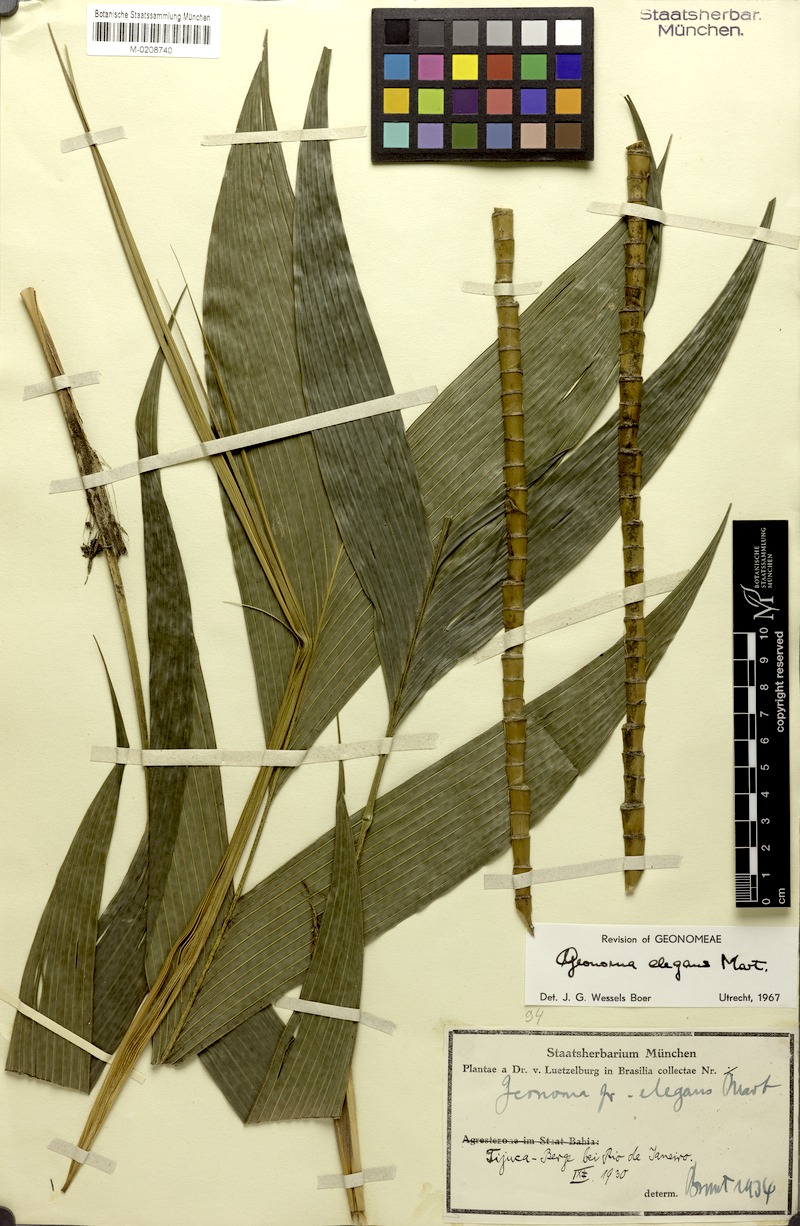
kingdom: Plantae
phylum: Tracheophyta
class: Liliopsida
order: Arecales
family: Arecaceae
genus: Geonoma
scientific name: Geonoma elegans
